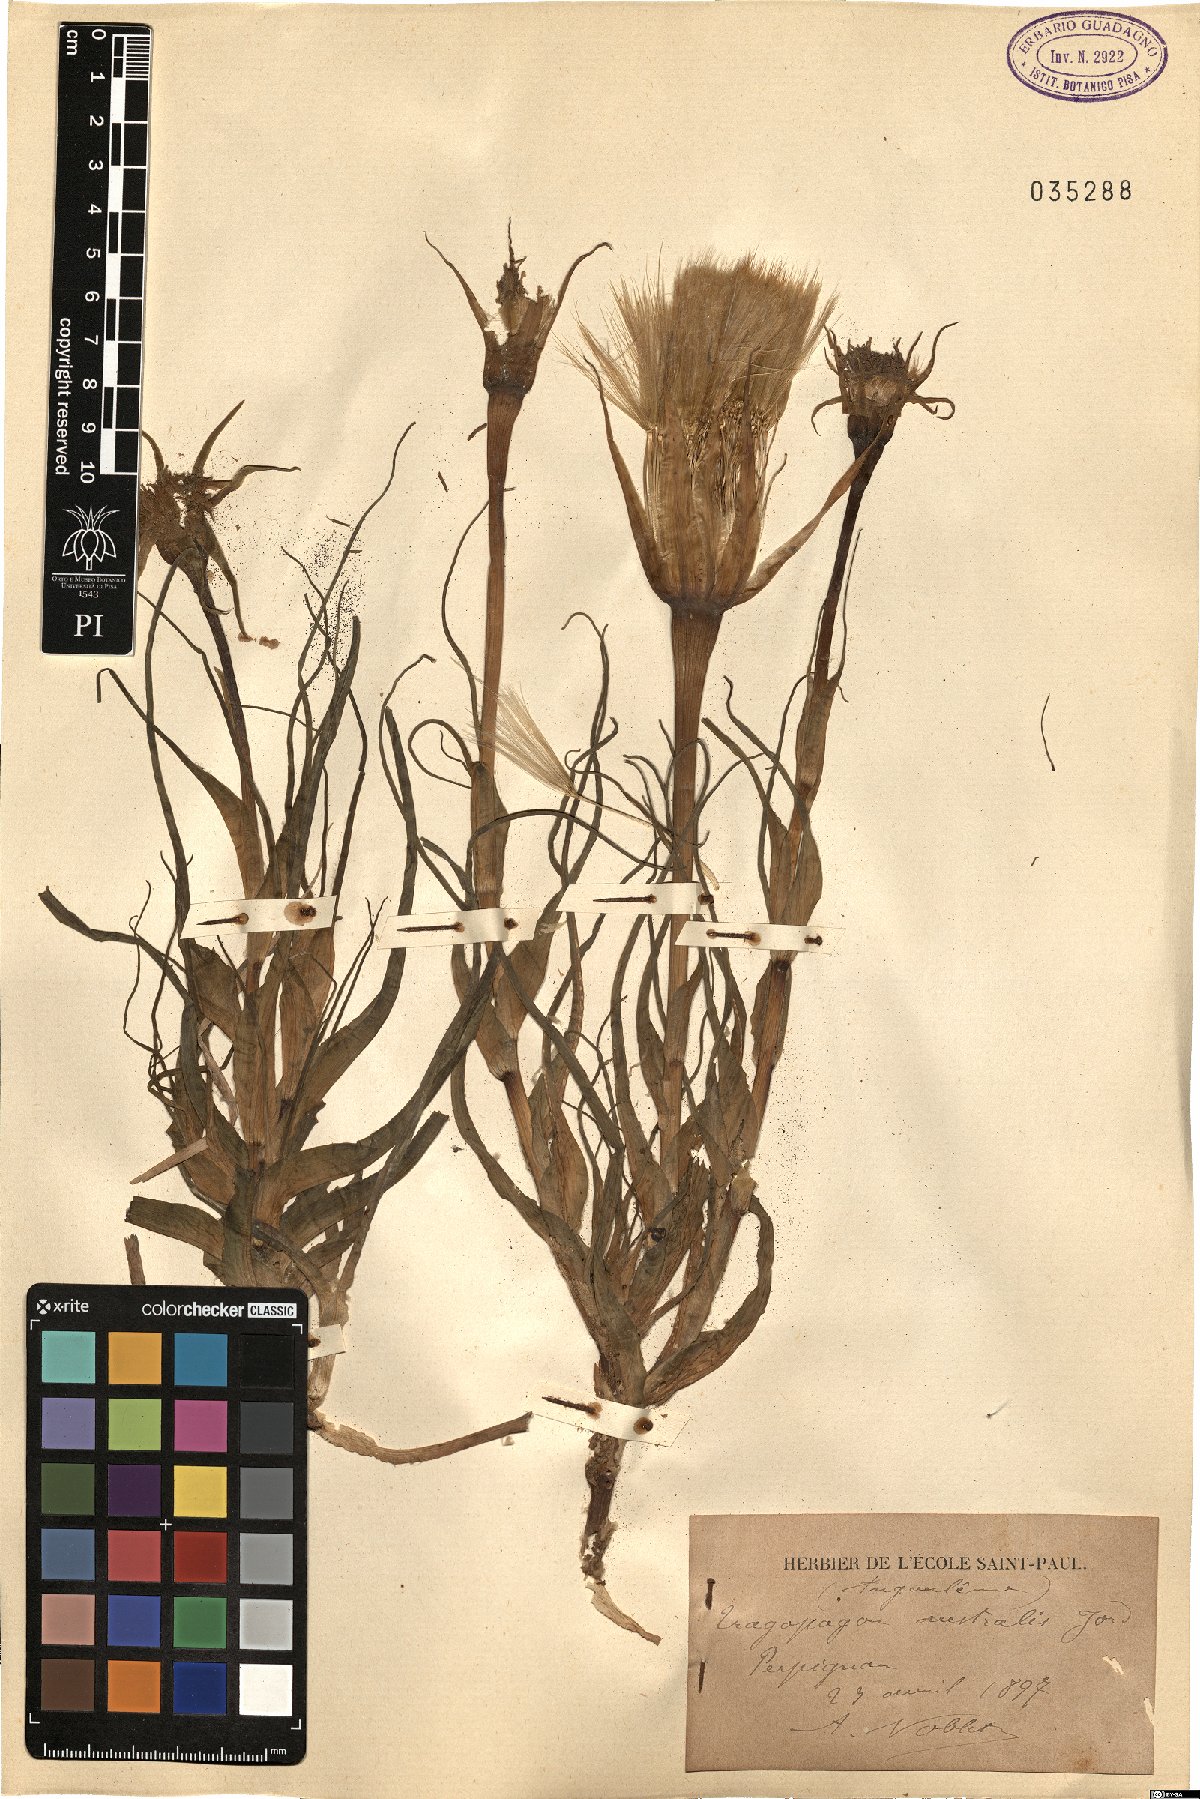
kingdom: Plantae
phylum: Tracheophyta
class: Magnoliopsida
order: Asterales
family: Asteraceae
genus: Tragopogon
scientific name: Tragopogon porrifolius
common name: Salsify
